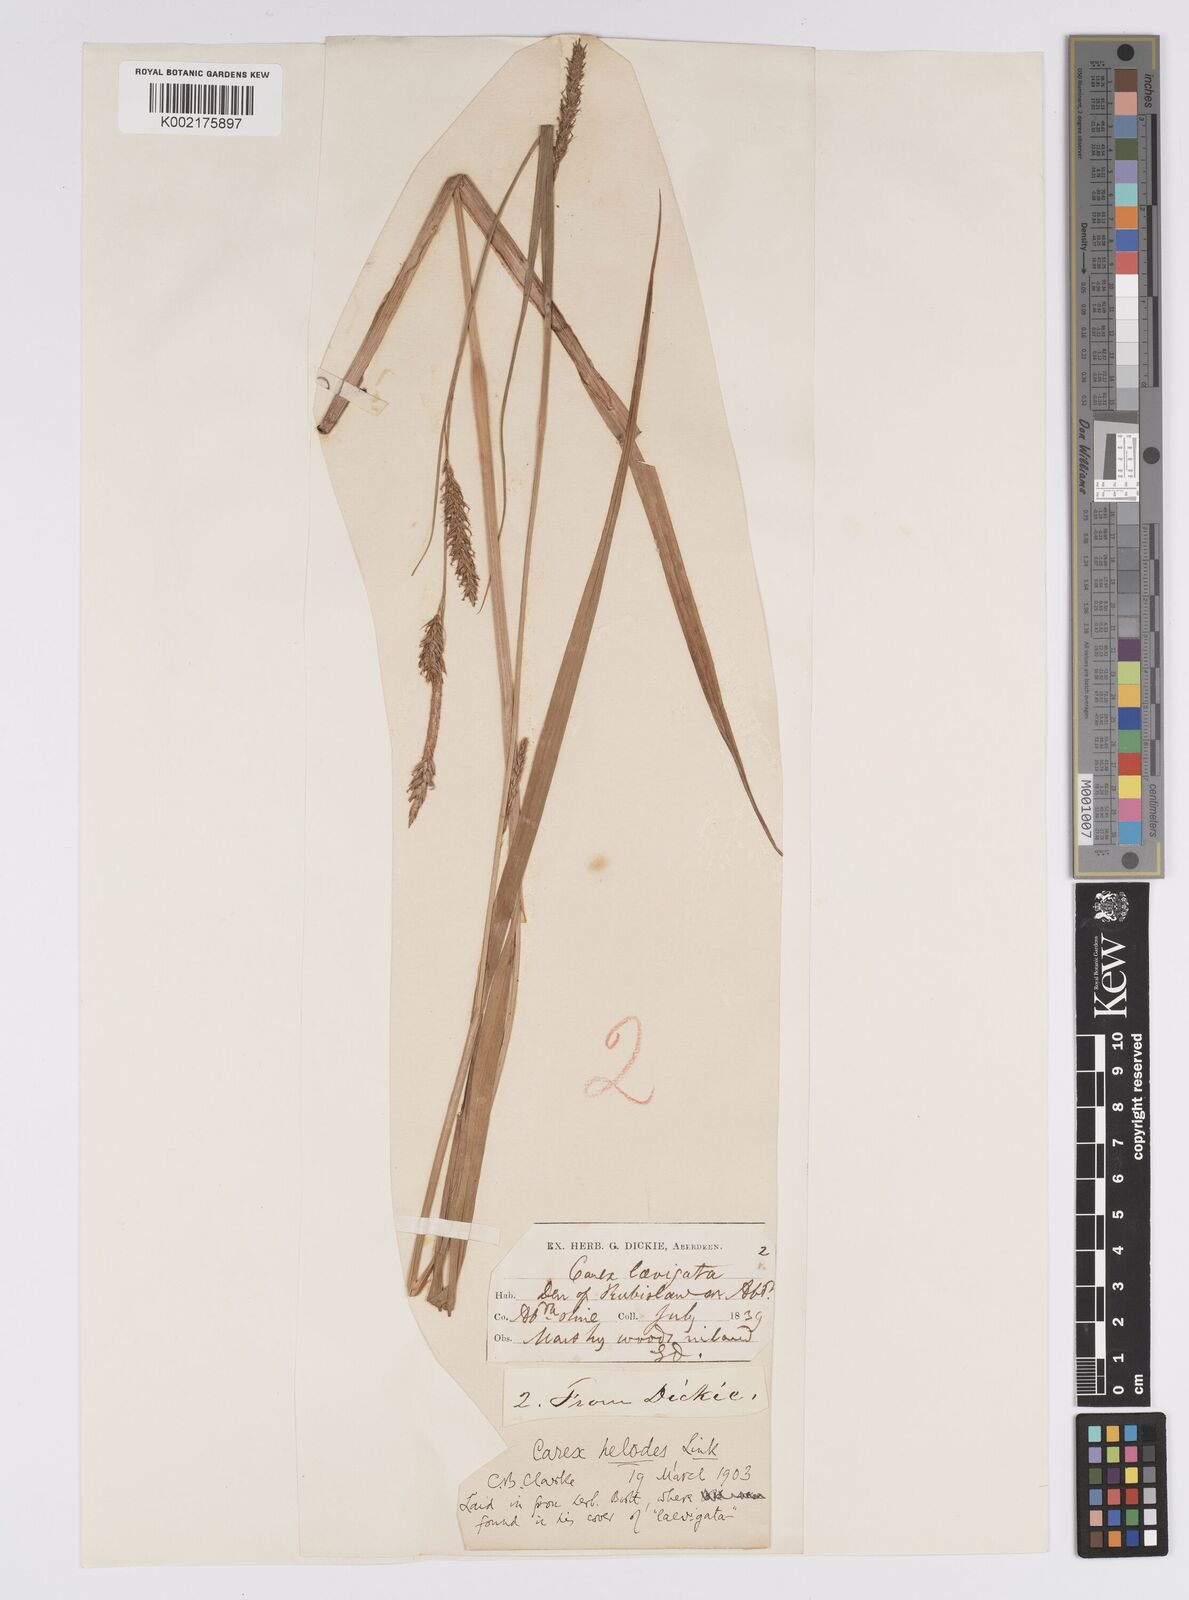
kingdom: Plantae
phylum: Tracheophyta
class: Liliopsida
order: Poales
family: Cyperaceae
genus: Carex
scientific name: Carex laevigata
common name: Smooth-stalked sedge
